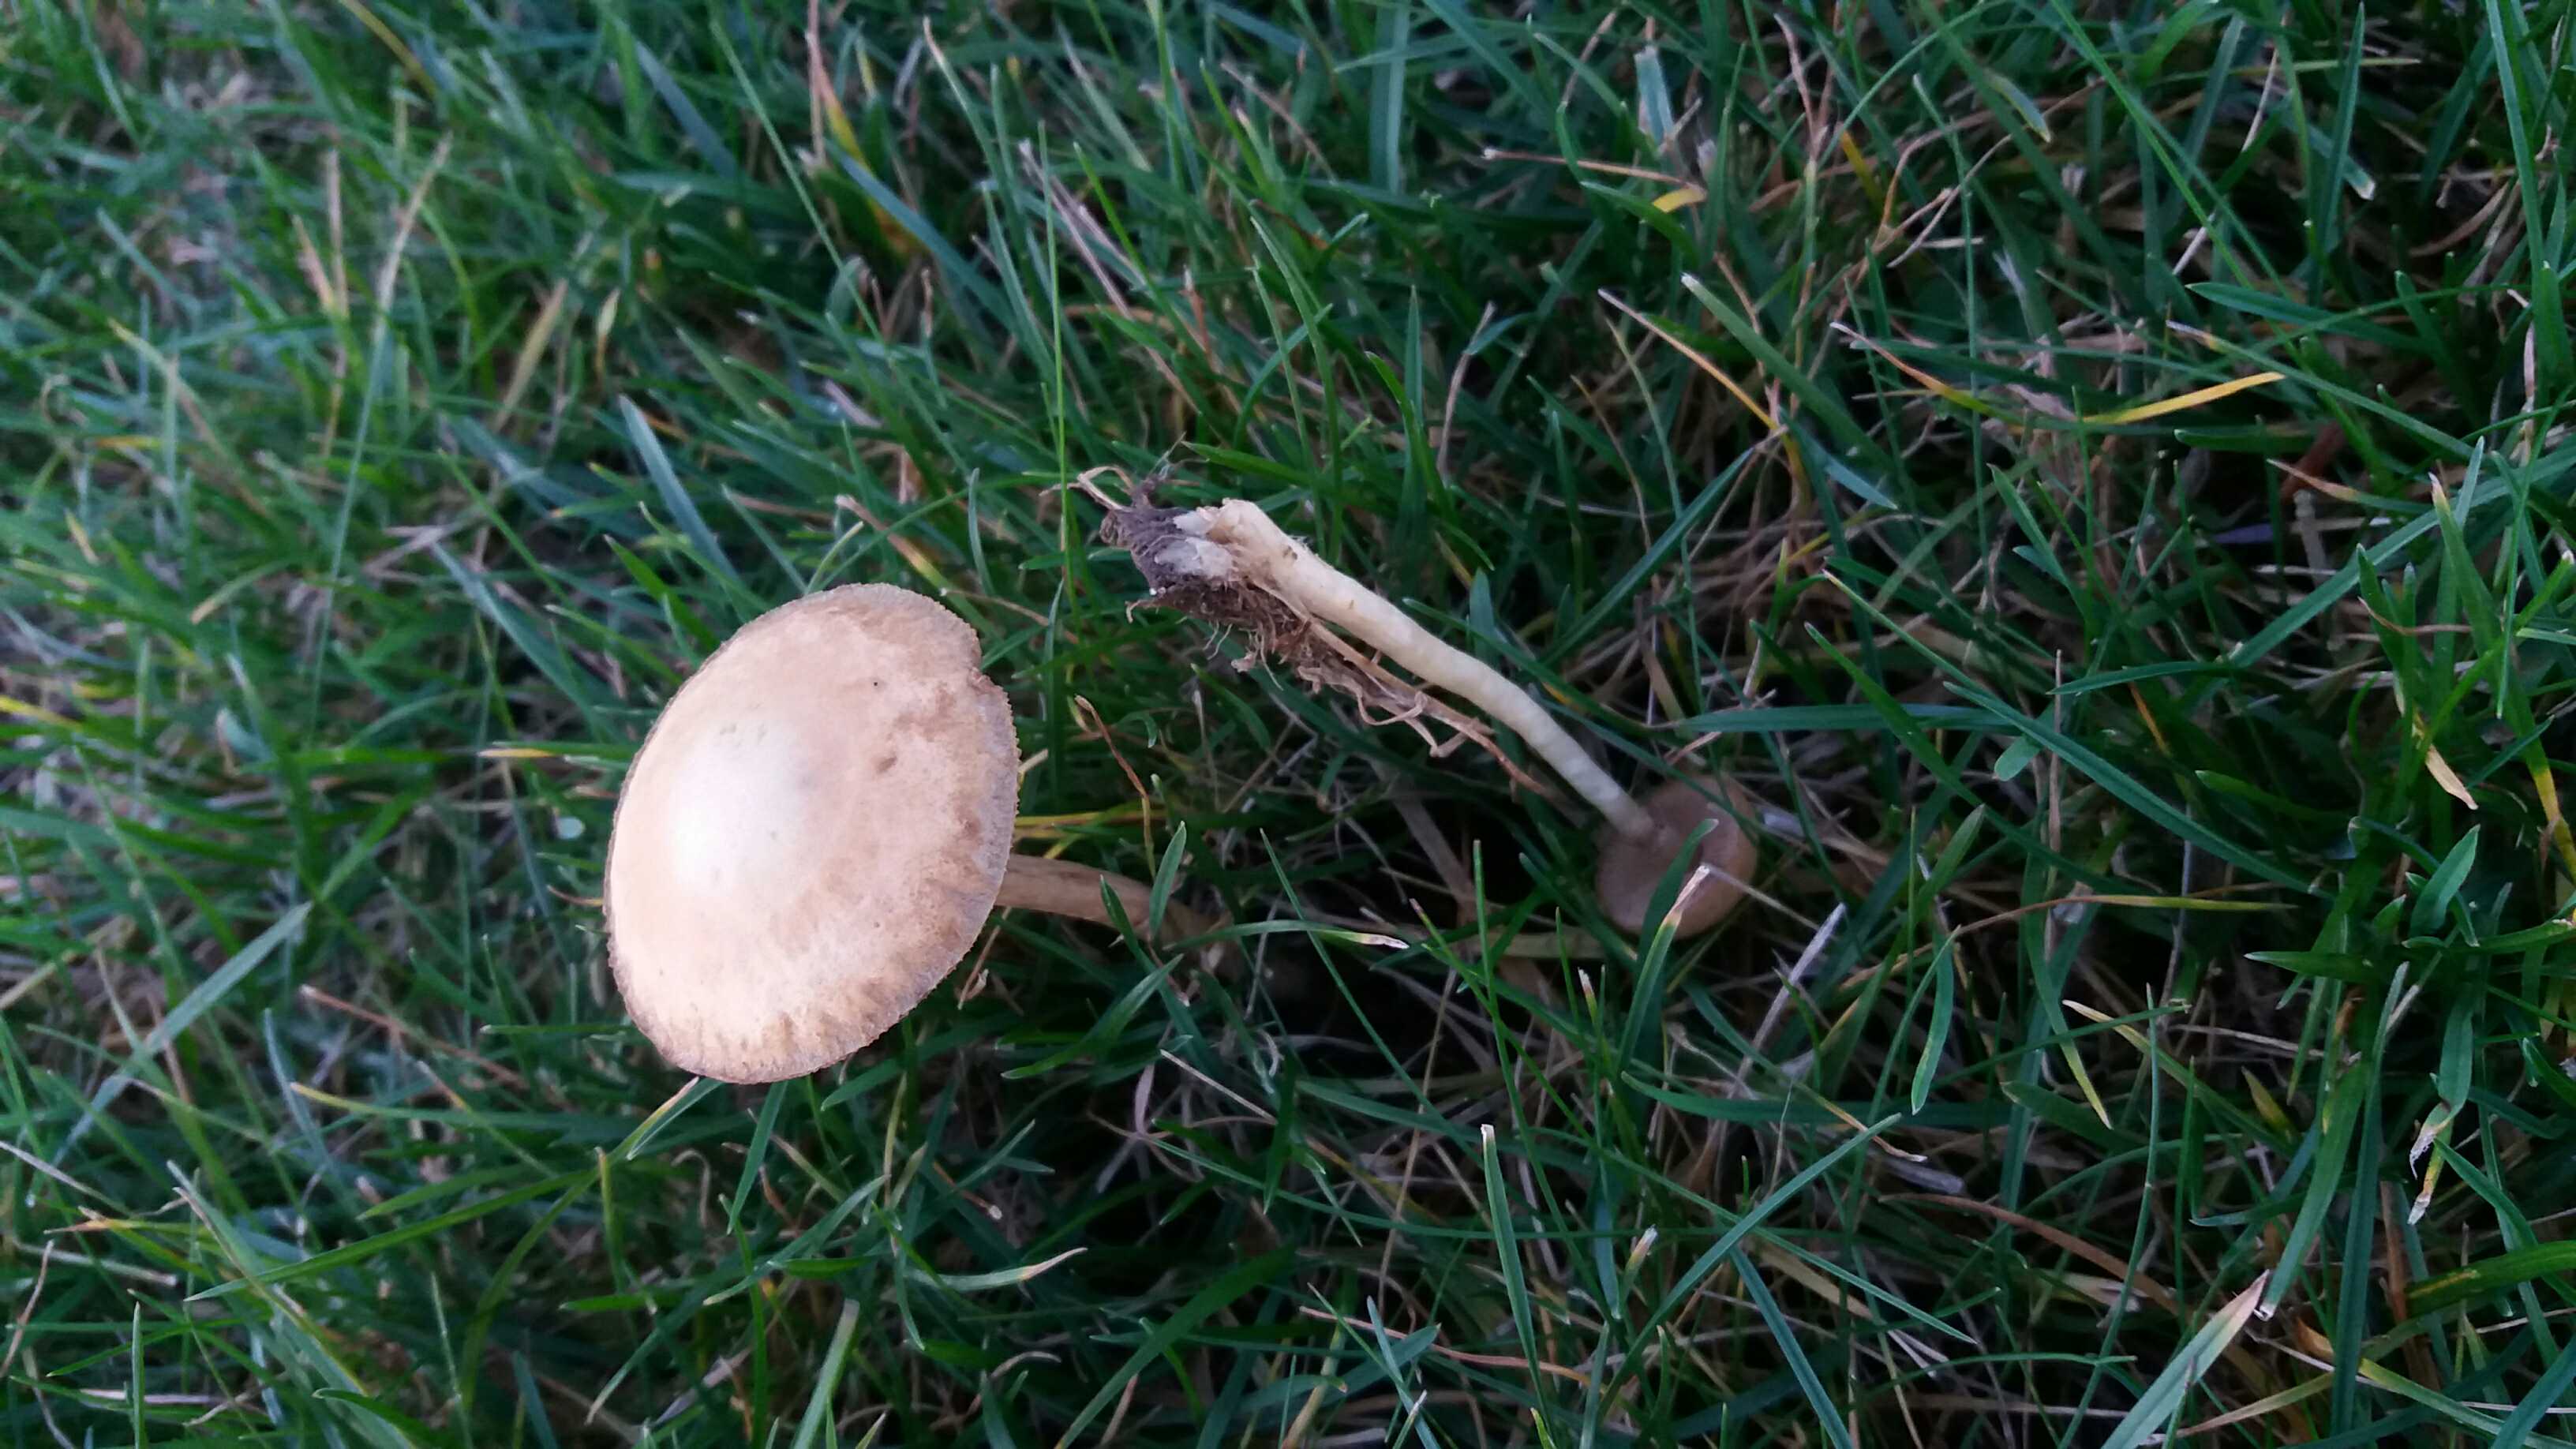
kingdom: Fungi
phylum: Basidiomycota
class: Agaricomycetes
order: Agaricales
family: Strophariaceae
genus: Agrocybe
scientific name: Agrocybe
